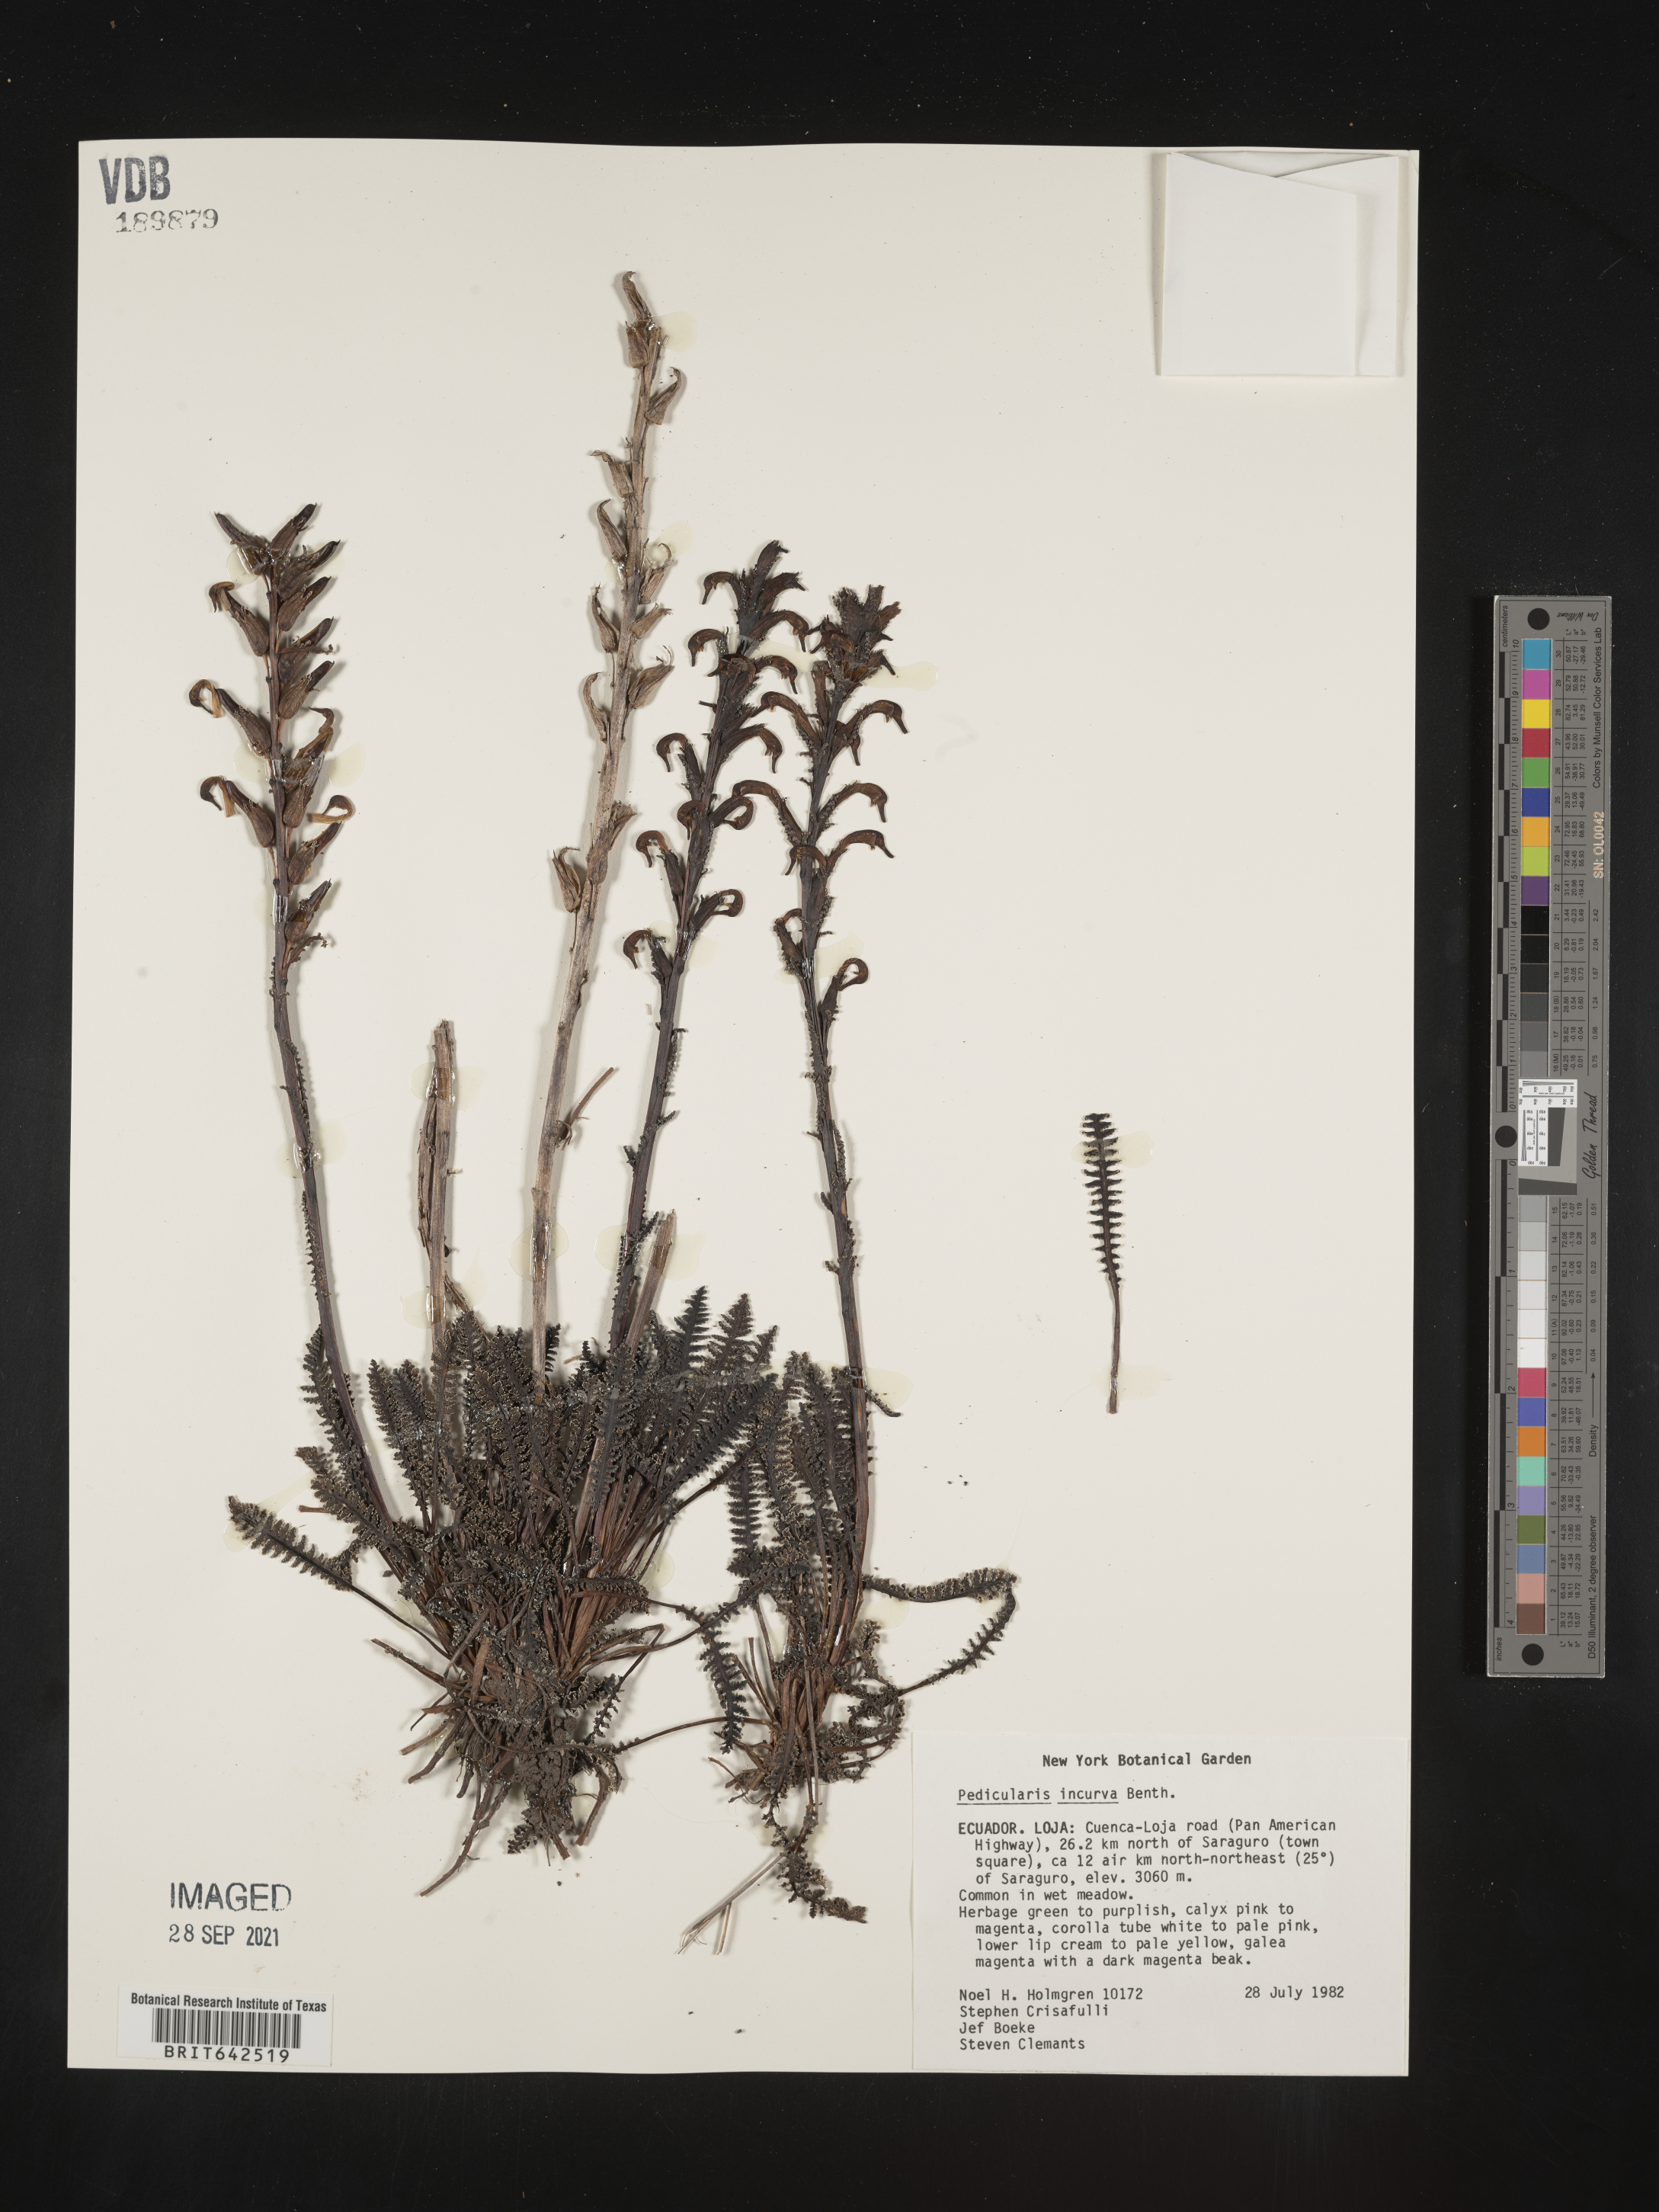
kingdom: Plantae
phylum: Tracheophyta
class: Magnoliopsida
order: Lamiales
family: Orobanchaceae
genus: Pedicularis
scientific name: Pedicularis
